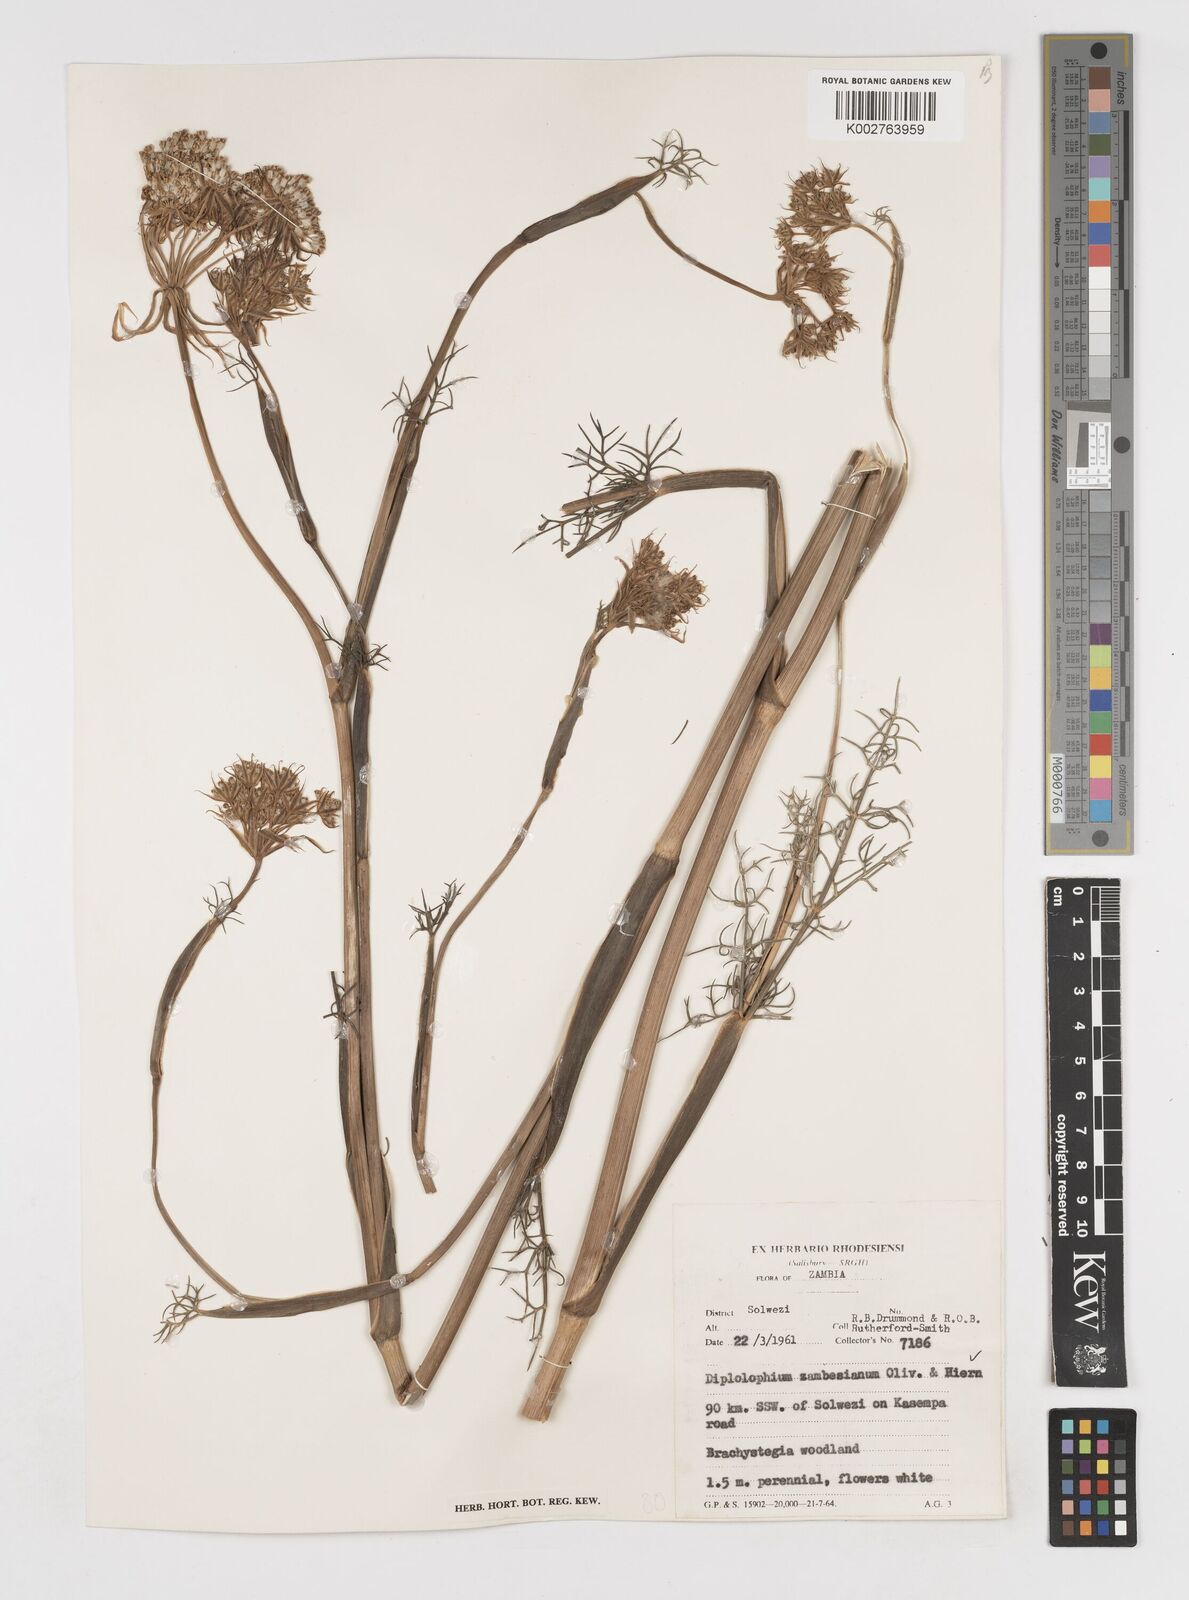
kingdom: Plantae
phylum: Tracheophyta
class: Magnoliopsida
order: Apiales
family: Apiaceae
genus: Diplolophium
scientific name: Diplolophium zambesianum
